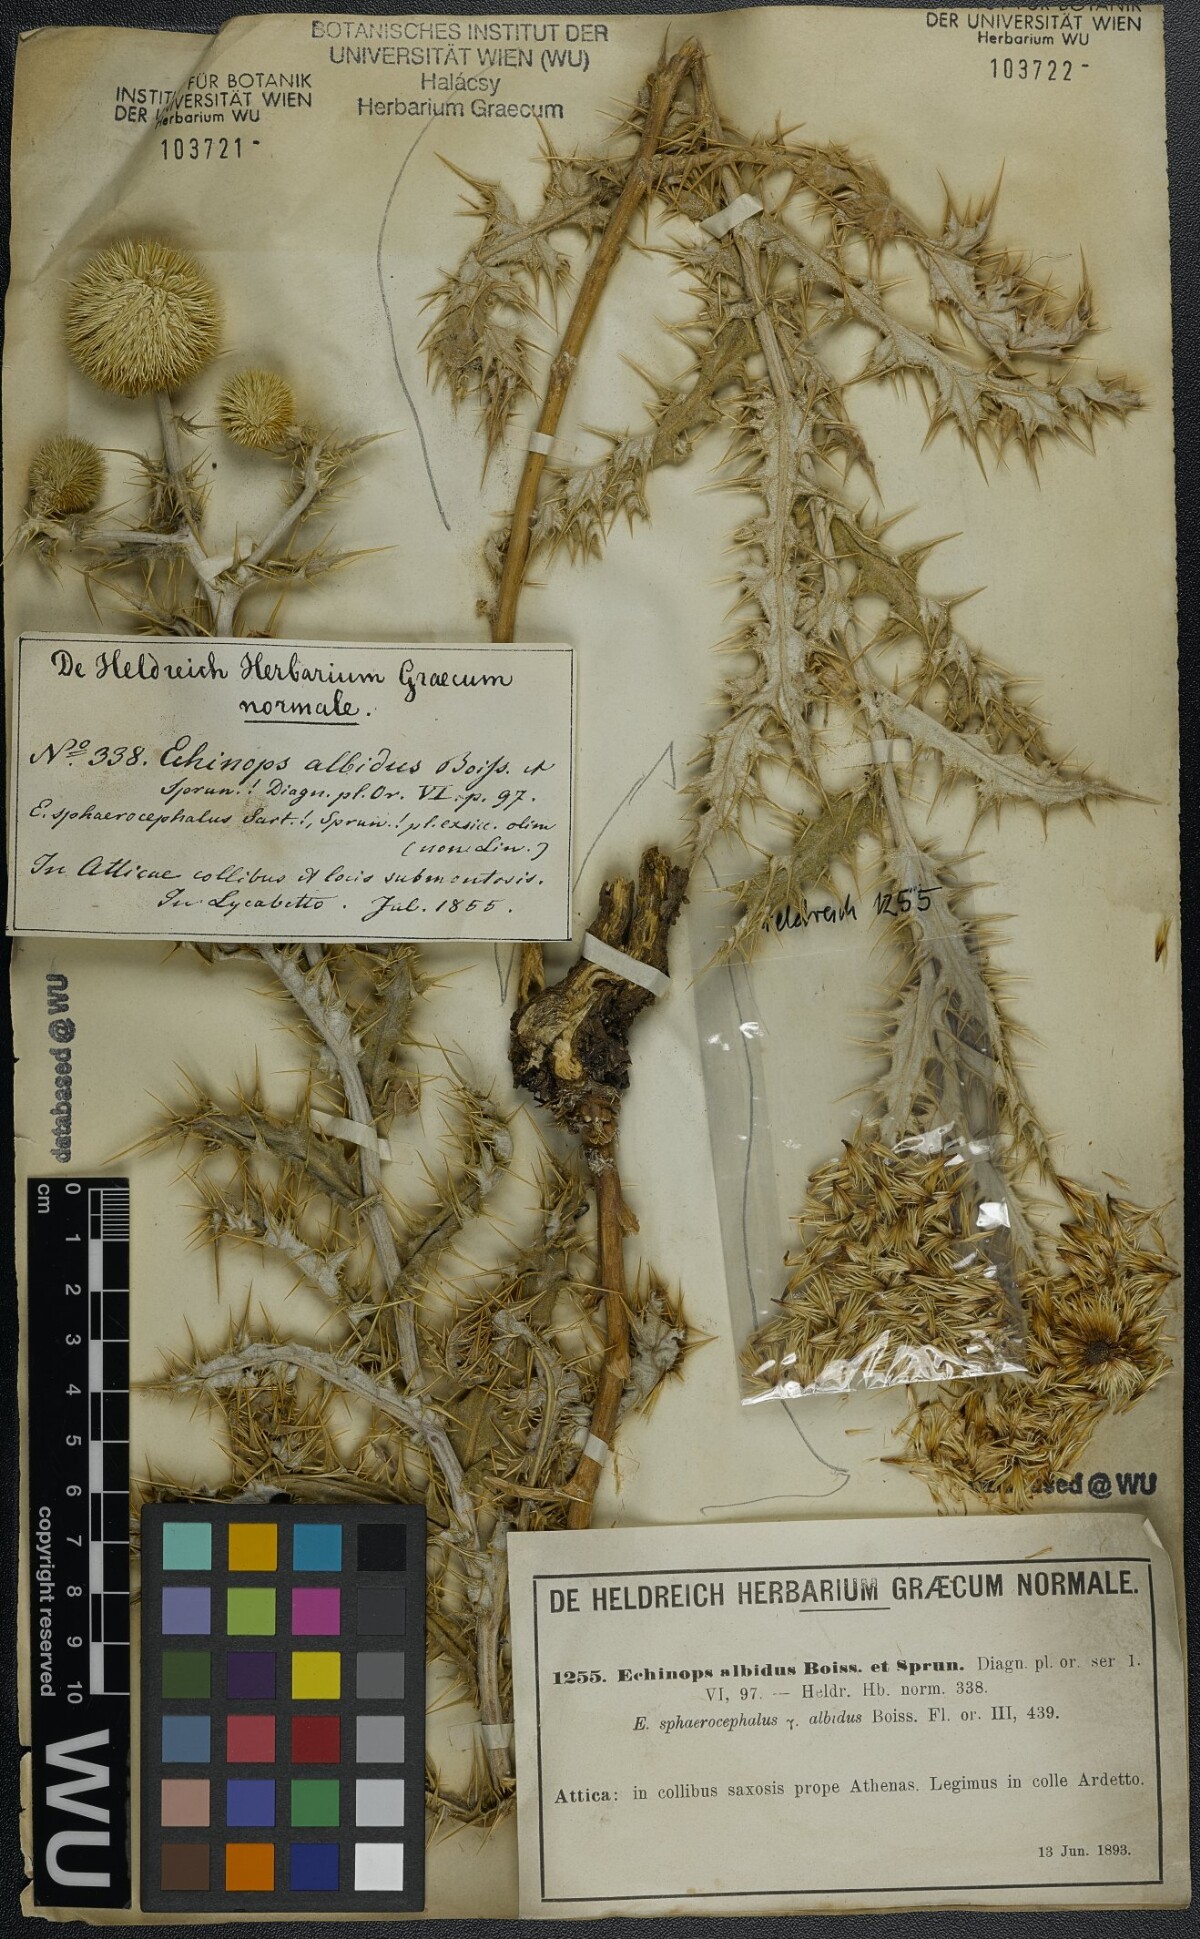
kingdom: Plantae
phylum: Tracheophyta
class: Magnoliopsida
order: Asterales
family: Asteraceae
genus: Echinops
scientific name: Echinops sphaerocephalus
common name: Glandular globe-thistle
